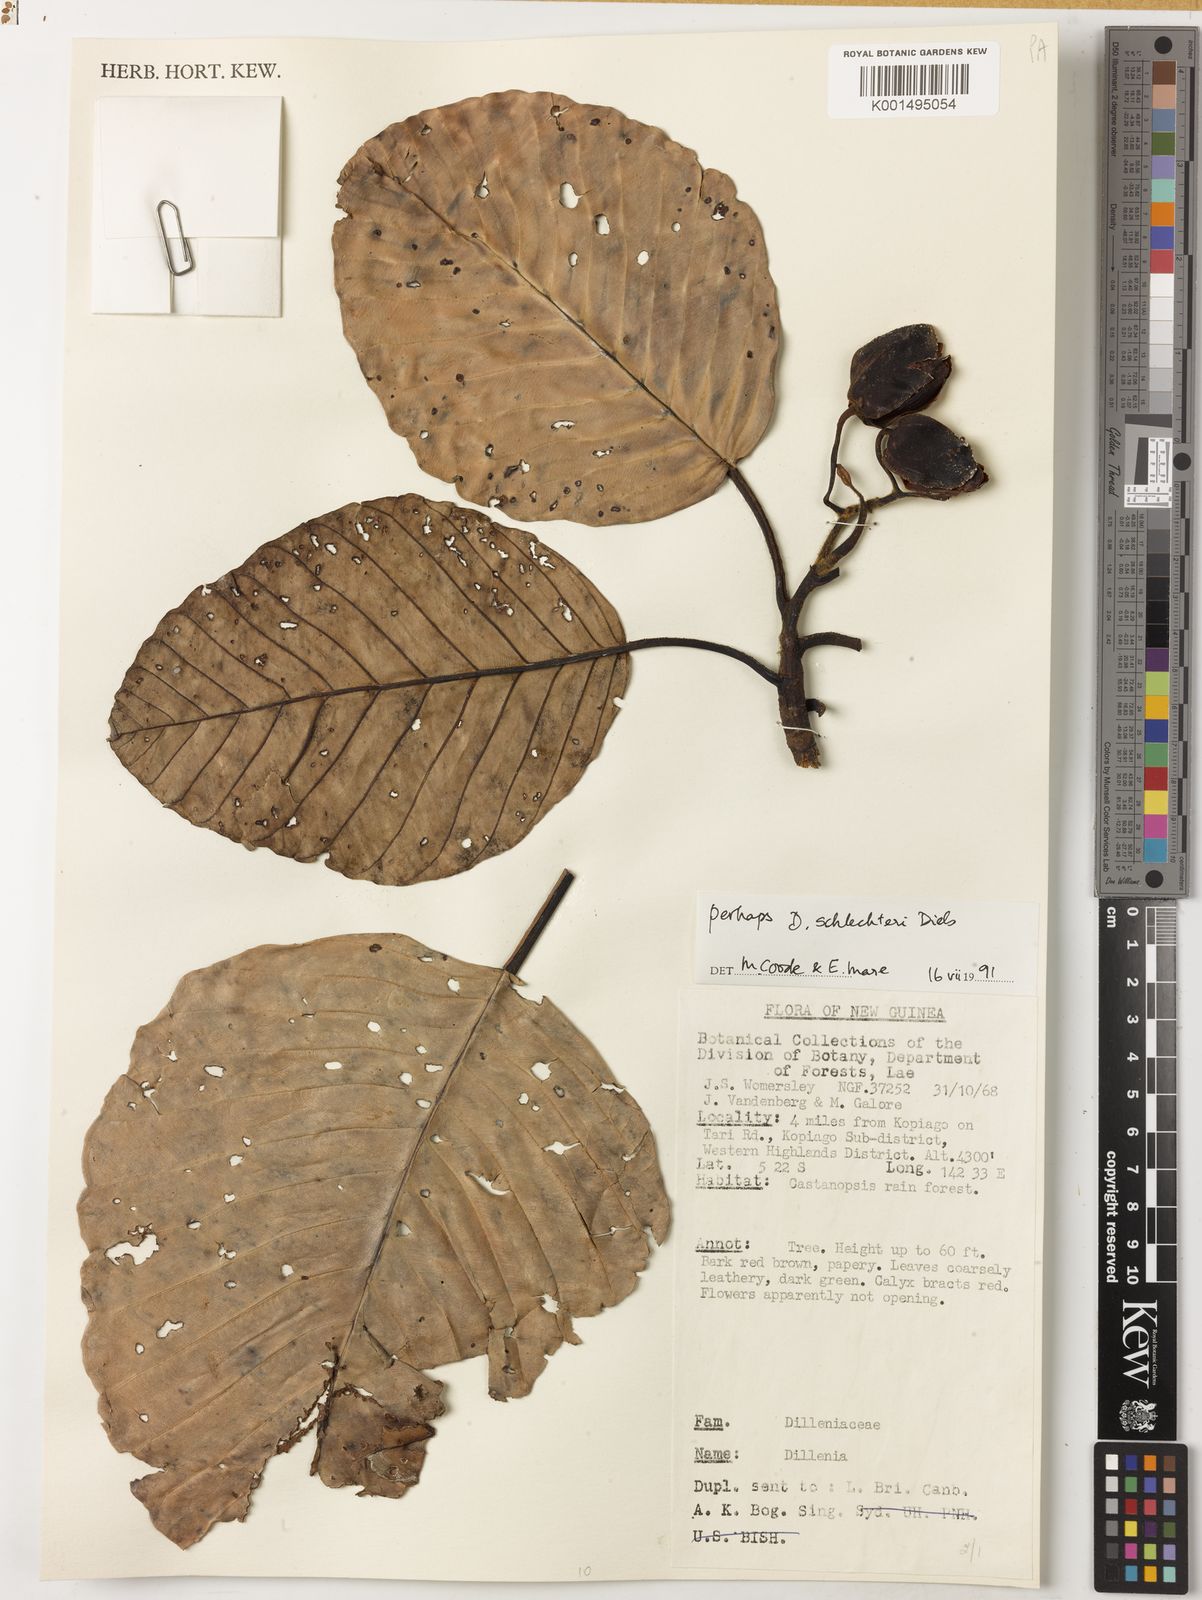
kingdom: Plantae
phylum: Tracheophyta
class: Magnoliopsida
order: Dilleniales
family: Dilleniaceae
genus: Dillenia
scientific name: Dillenia schlechteri
